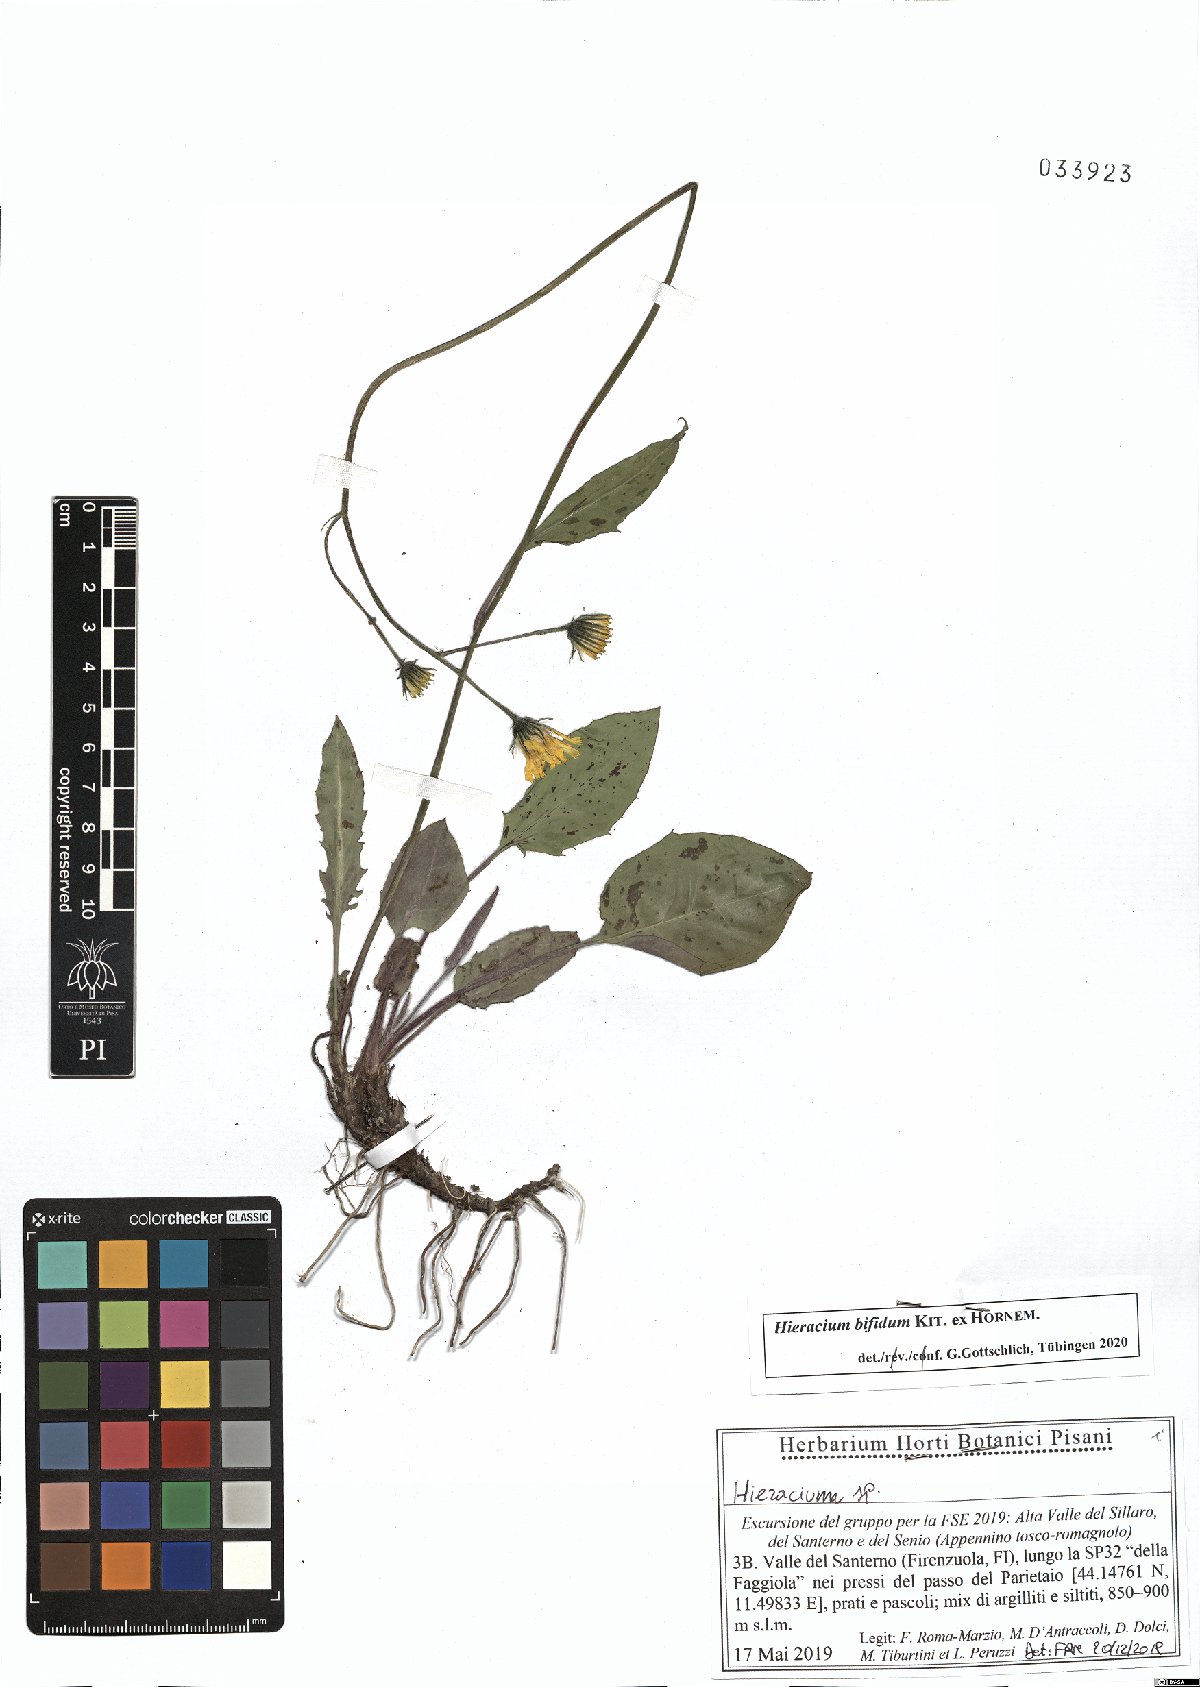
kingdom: Plantae
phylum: Tracheophyta
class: Magnoliopsida
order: Asterales
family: Asteraceae
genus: Hieracium
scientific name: Hieracium bifidum
